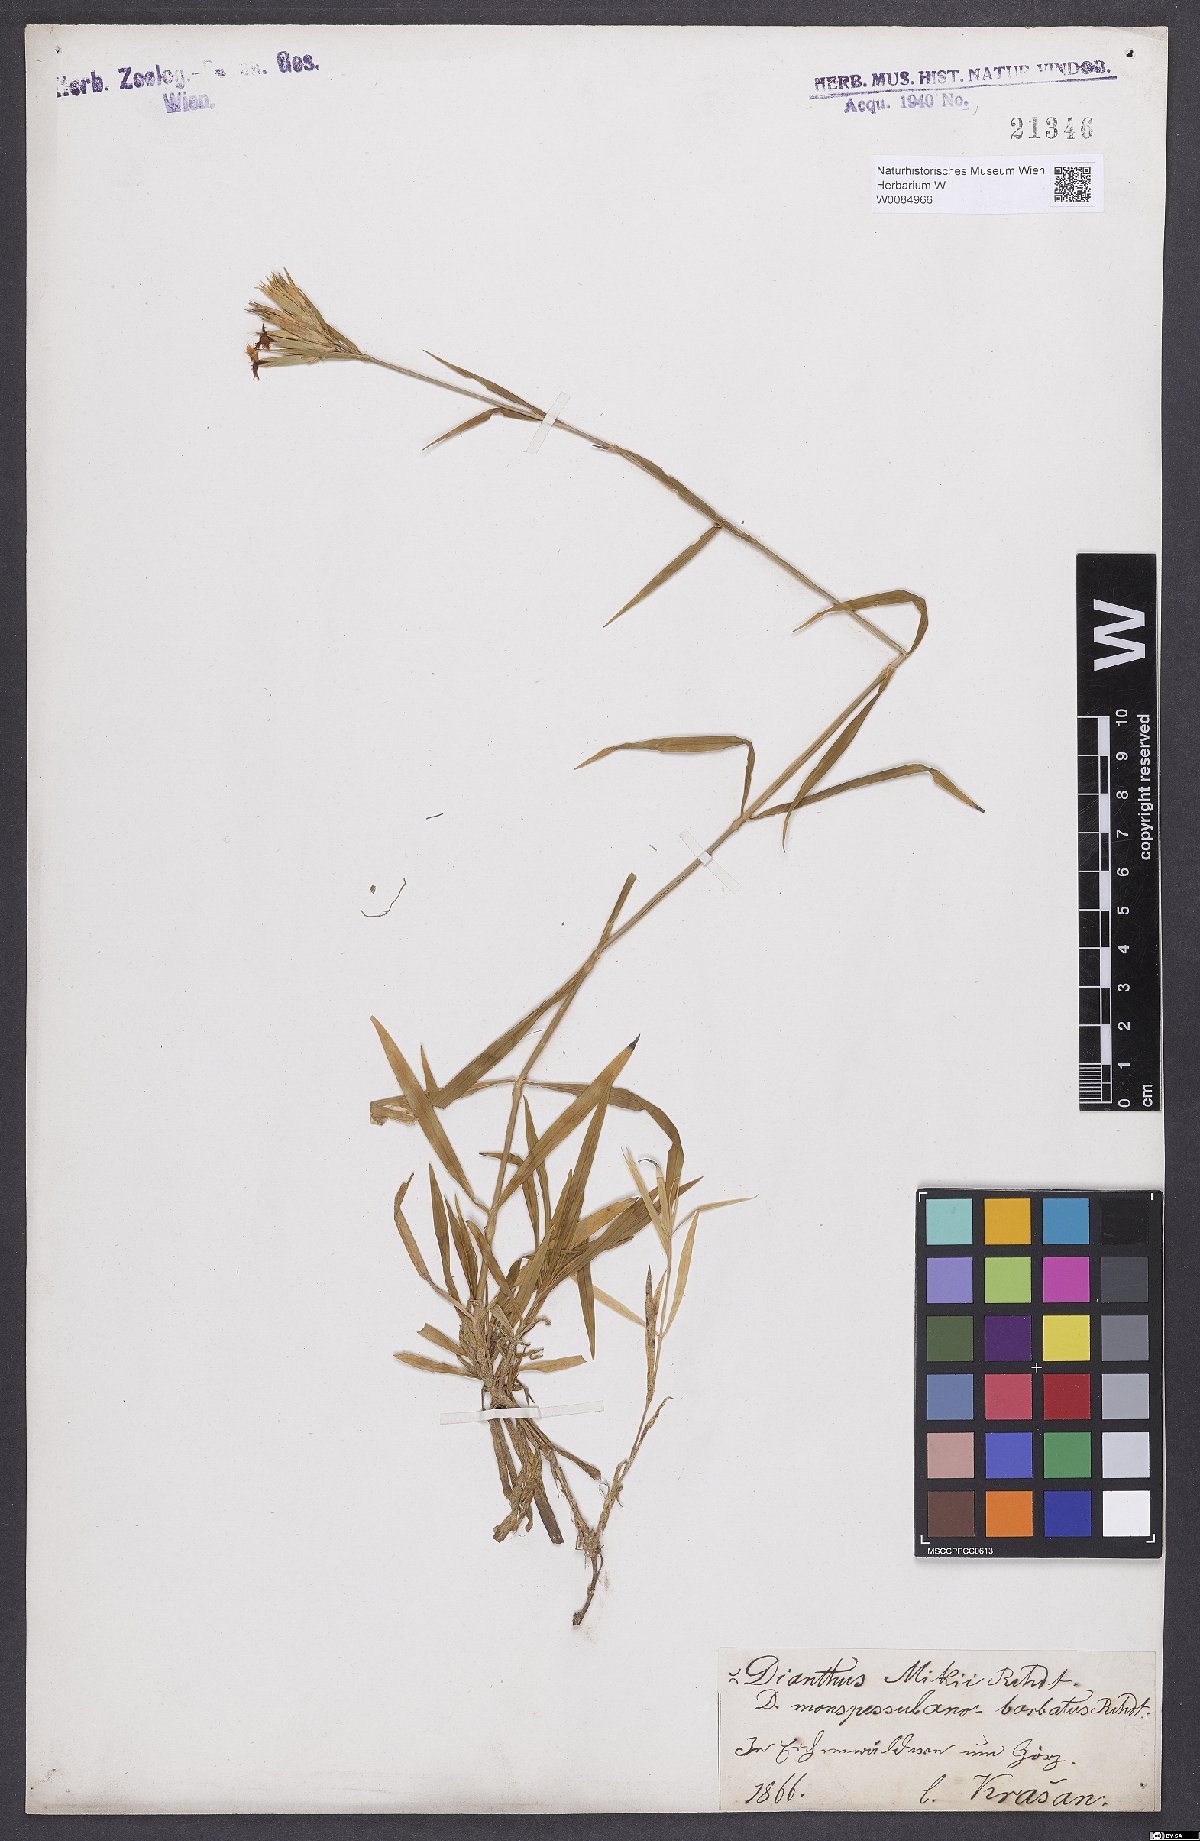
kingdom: Plantae
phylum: Tracheophyta
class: Magnoliopsida
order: Caryophyllales
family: Caryophyllaceae
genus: Dianthus
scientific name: Dianthus hyssopifolius
